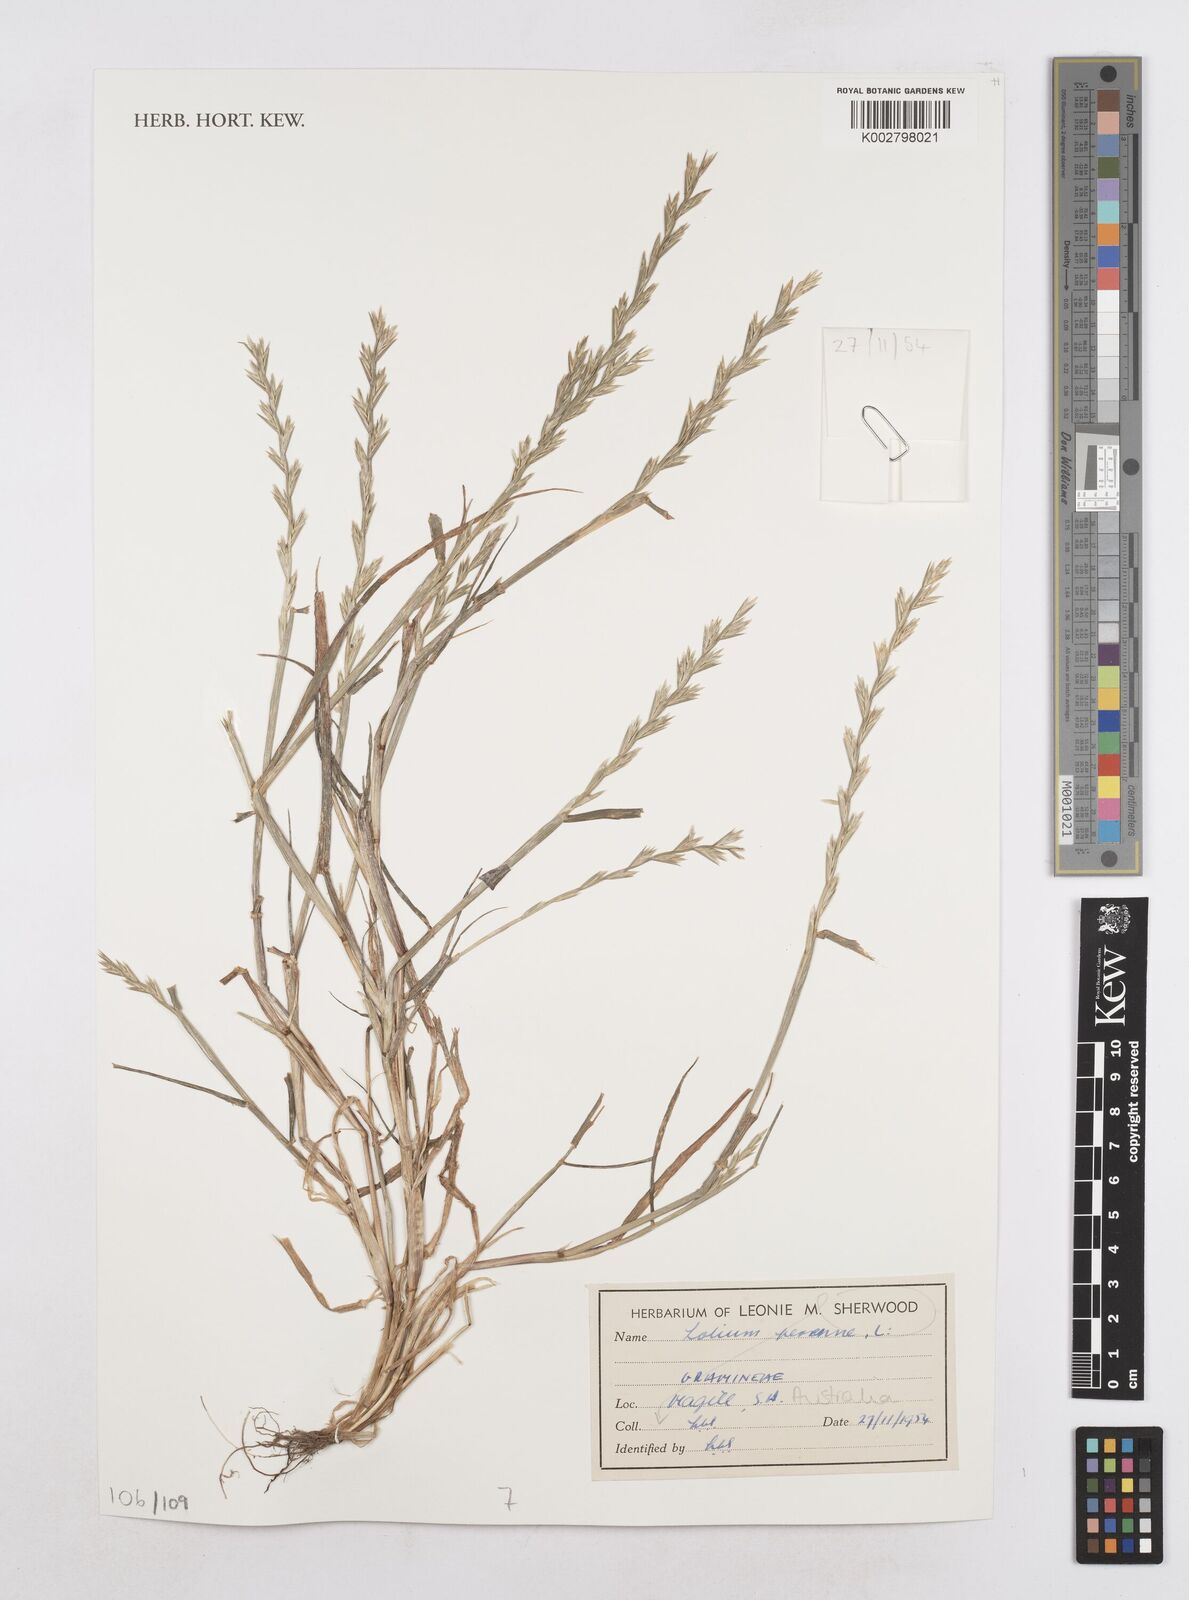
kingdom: Plantae
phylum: Tracheophyta
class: Liliopsida
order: Poales
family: Poaceae
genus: Lolium
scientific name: Lolium perenne
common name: Perennial ryegrass
